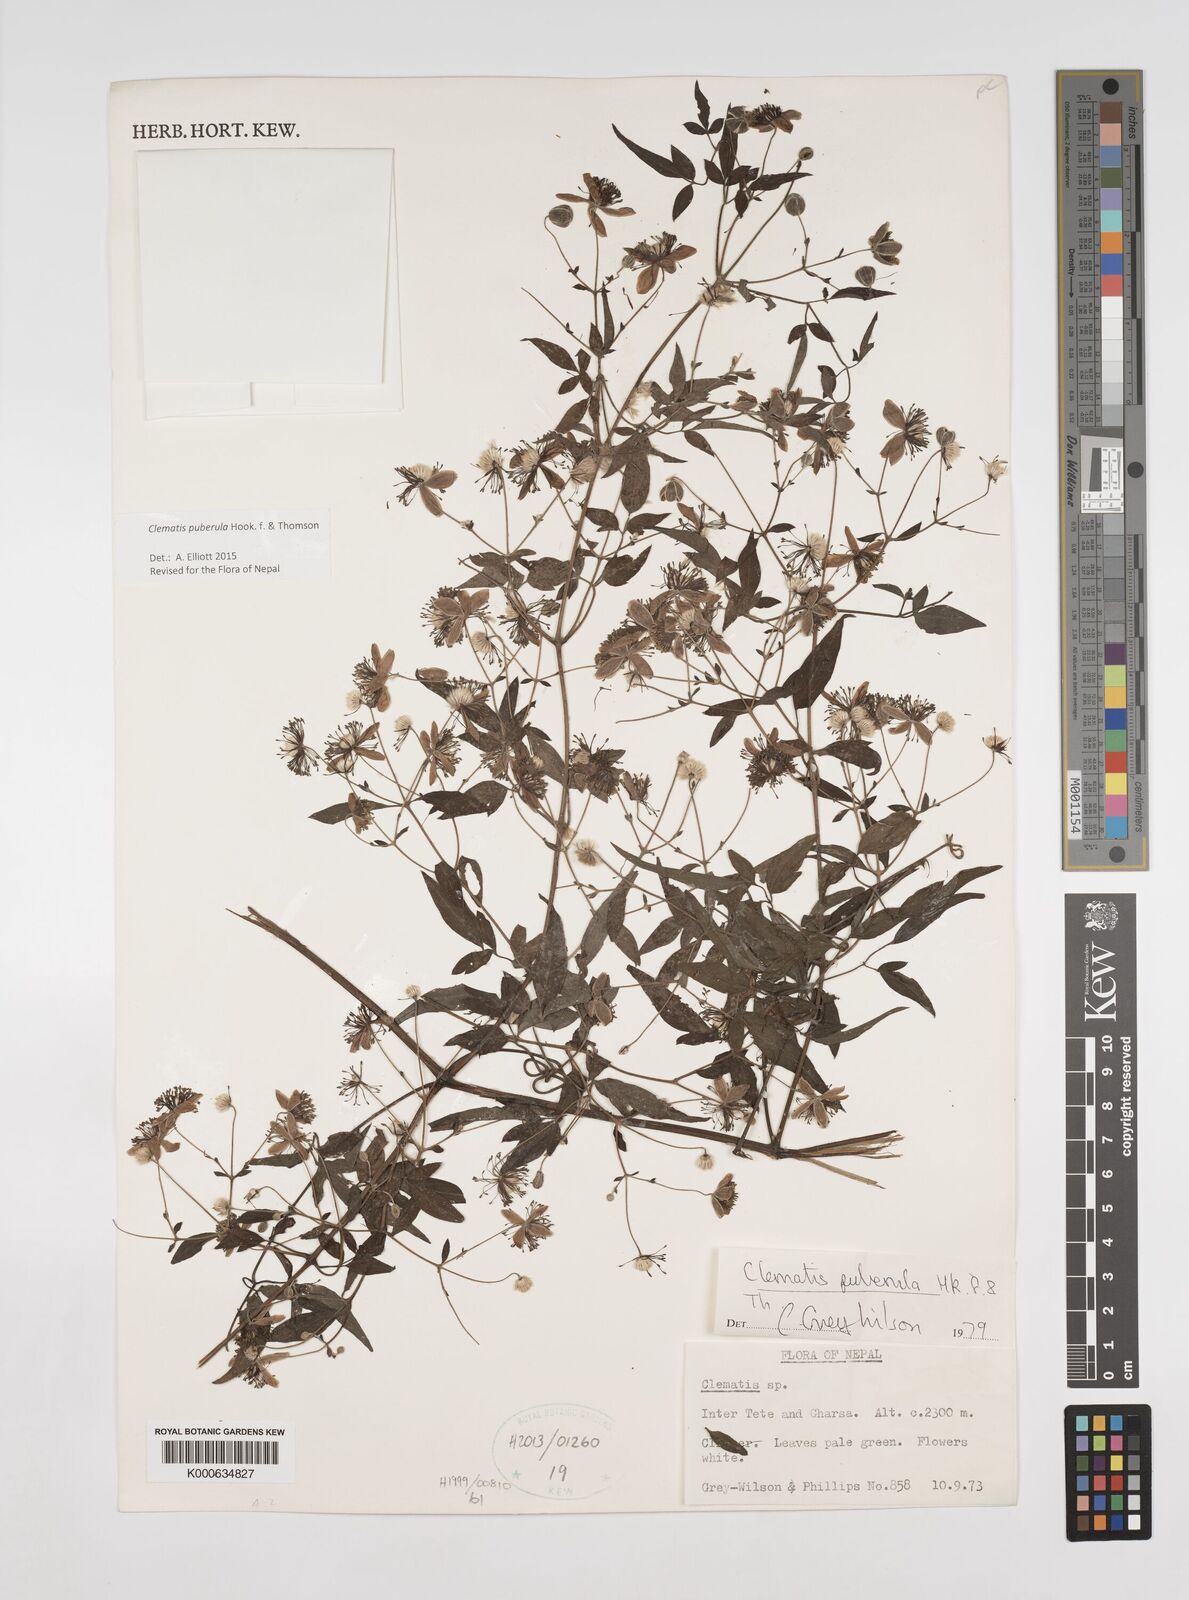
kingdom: Plantae
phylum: Tracheophyta
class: Magnoliopsida
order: Ranunculales
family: Ranunculaceae
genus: Clematis
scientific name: Clematis puberula
